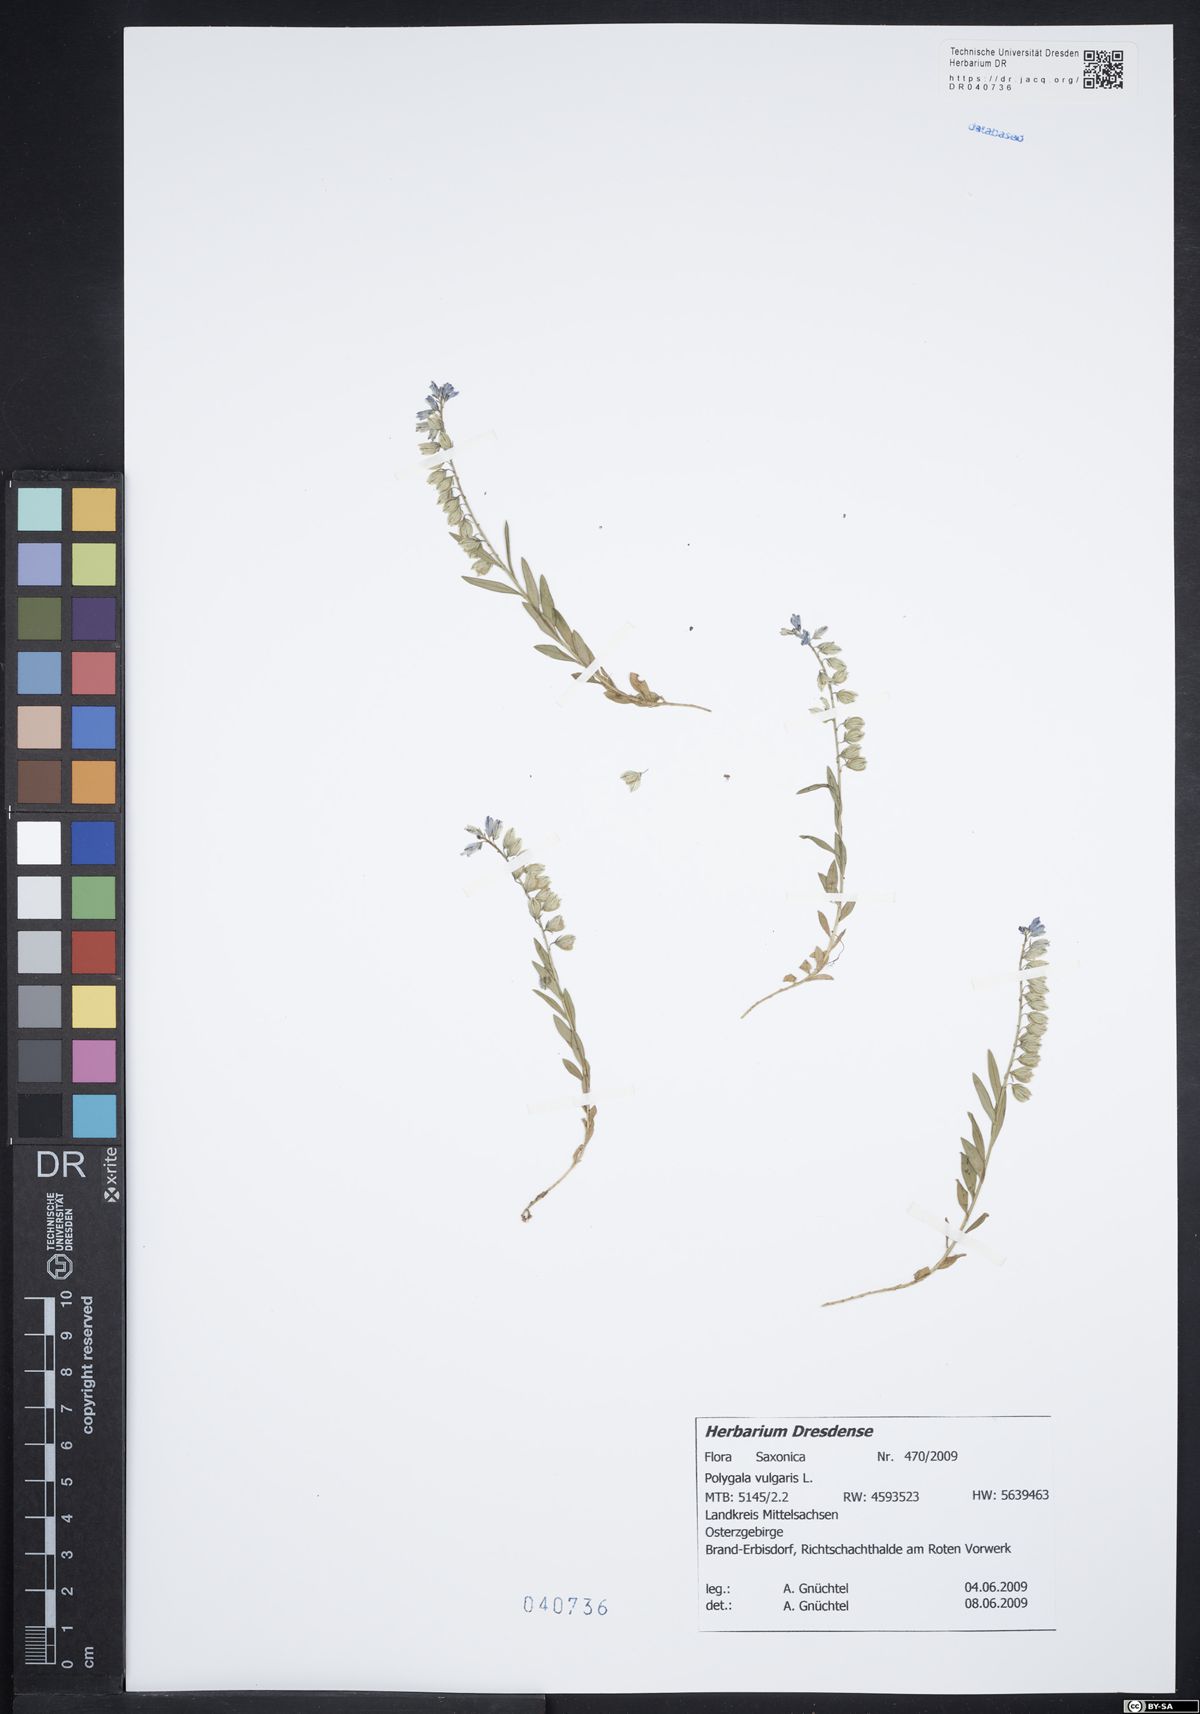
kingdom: Plantae
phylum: Tracheophyta
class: Magnoliopsida
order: Fabales
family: Polygalaceae
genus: Polygala
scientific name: Polygala vulgaris
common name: Common milkwort
